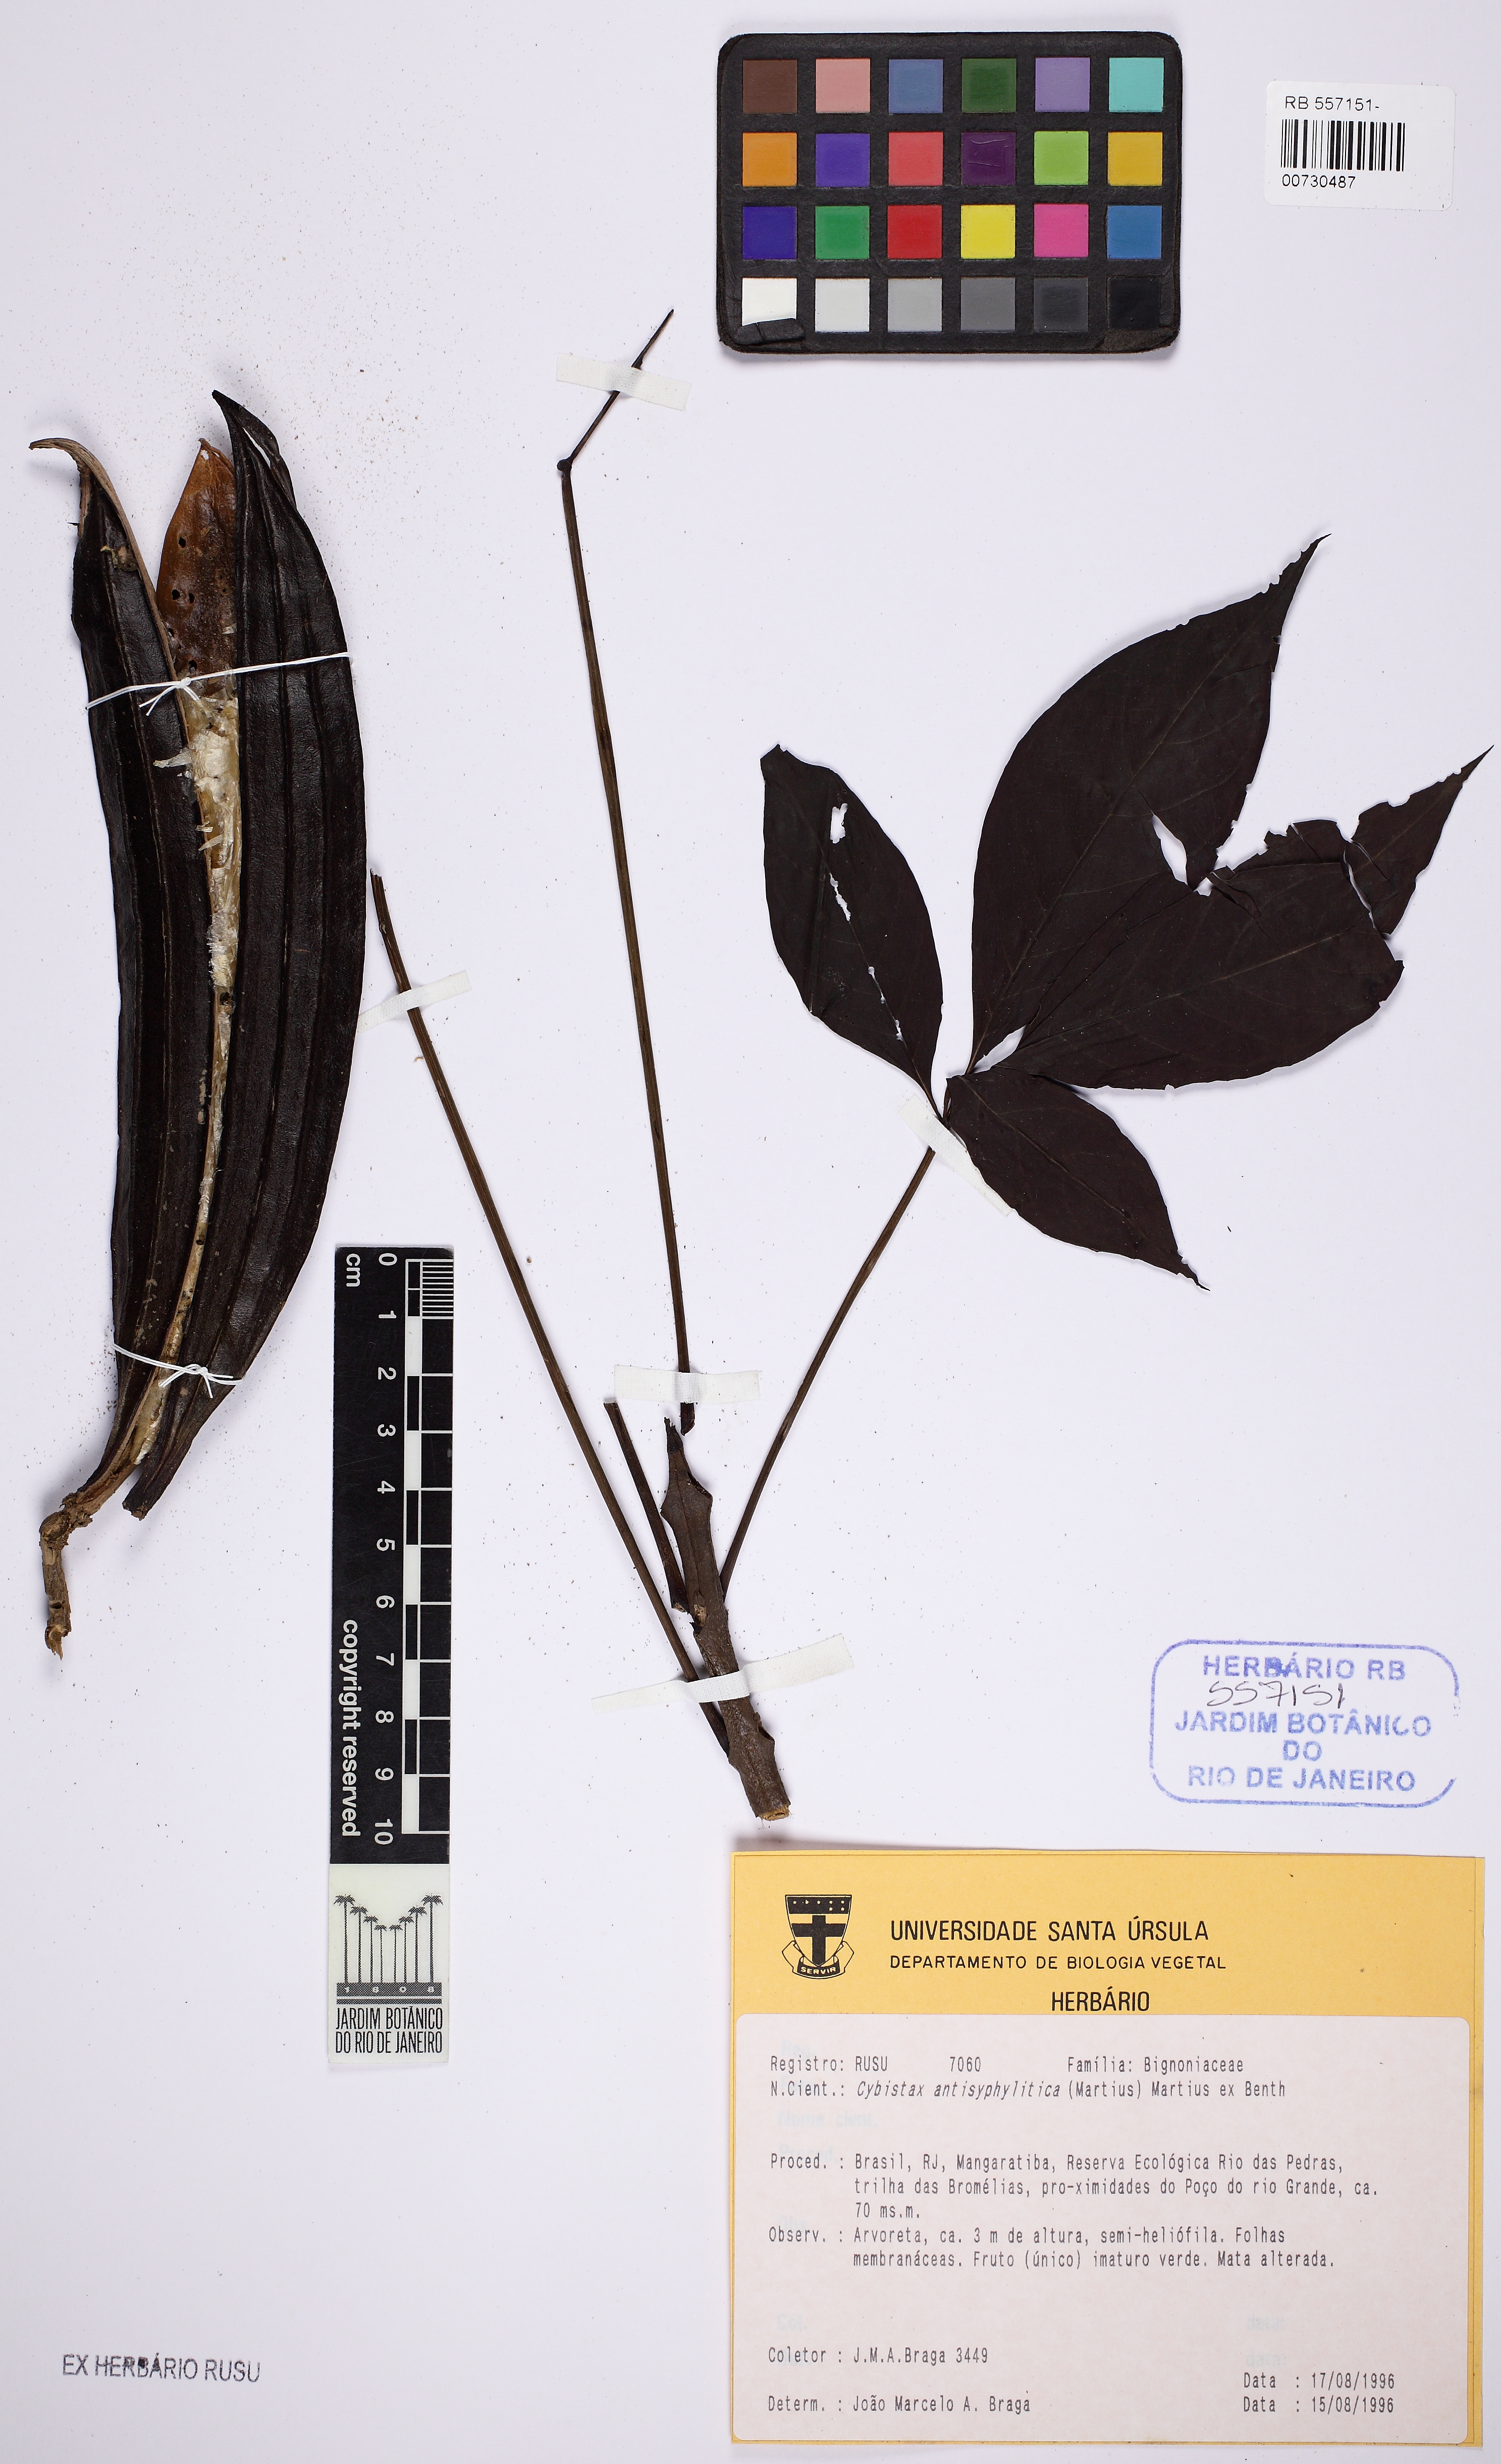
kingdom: Plantae
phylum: Tracheophyta
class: Magnoliopsida
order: Lamiales
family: Bignoniaceae
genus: Cybistax
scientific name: Cybistax antisyphilitica
